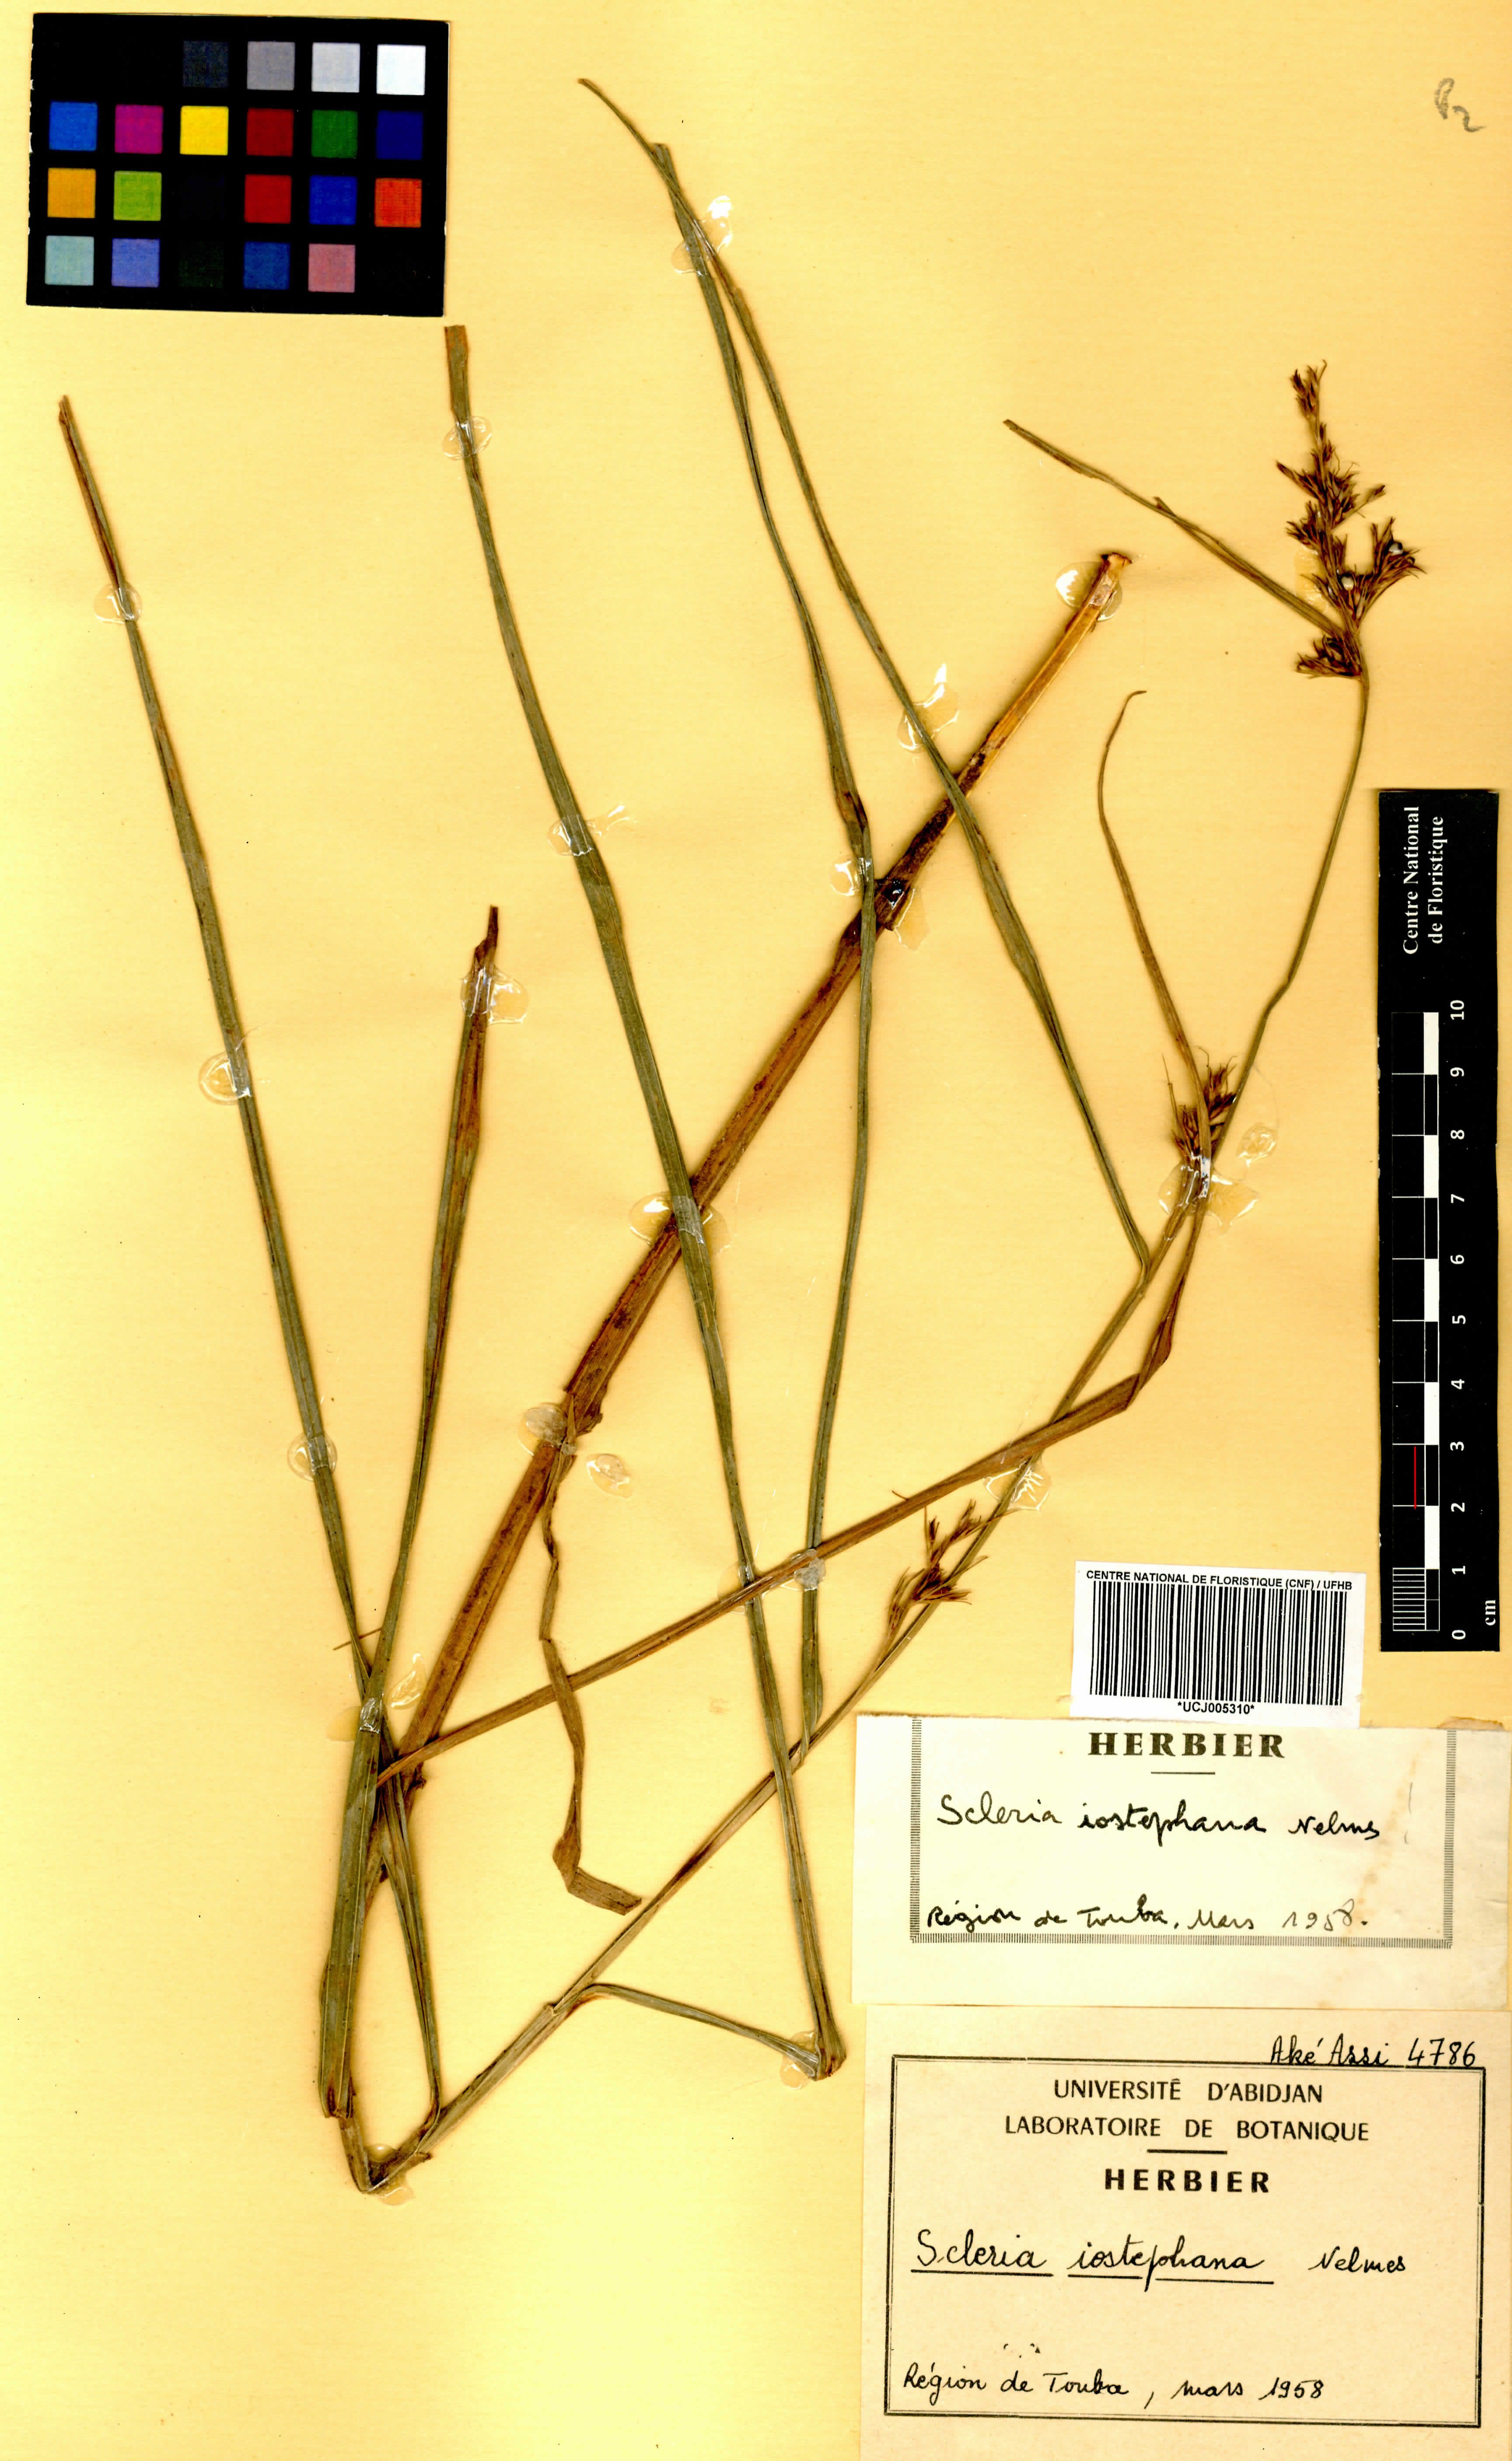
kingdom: Plantae
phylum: Tracheophyta
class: Liliopsida
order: Poales
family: Cyperaceae
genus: Scleria
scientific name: Scleria iostephana
